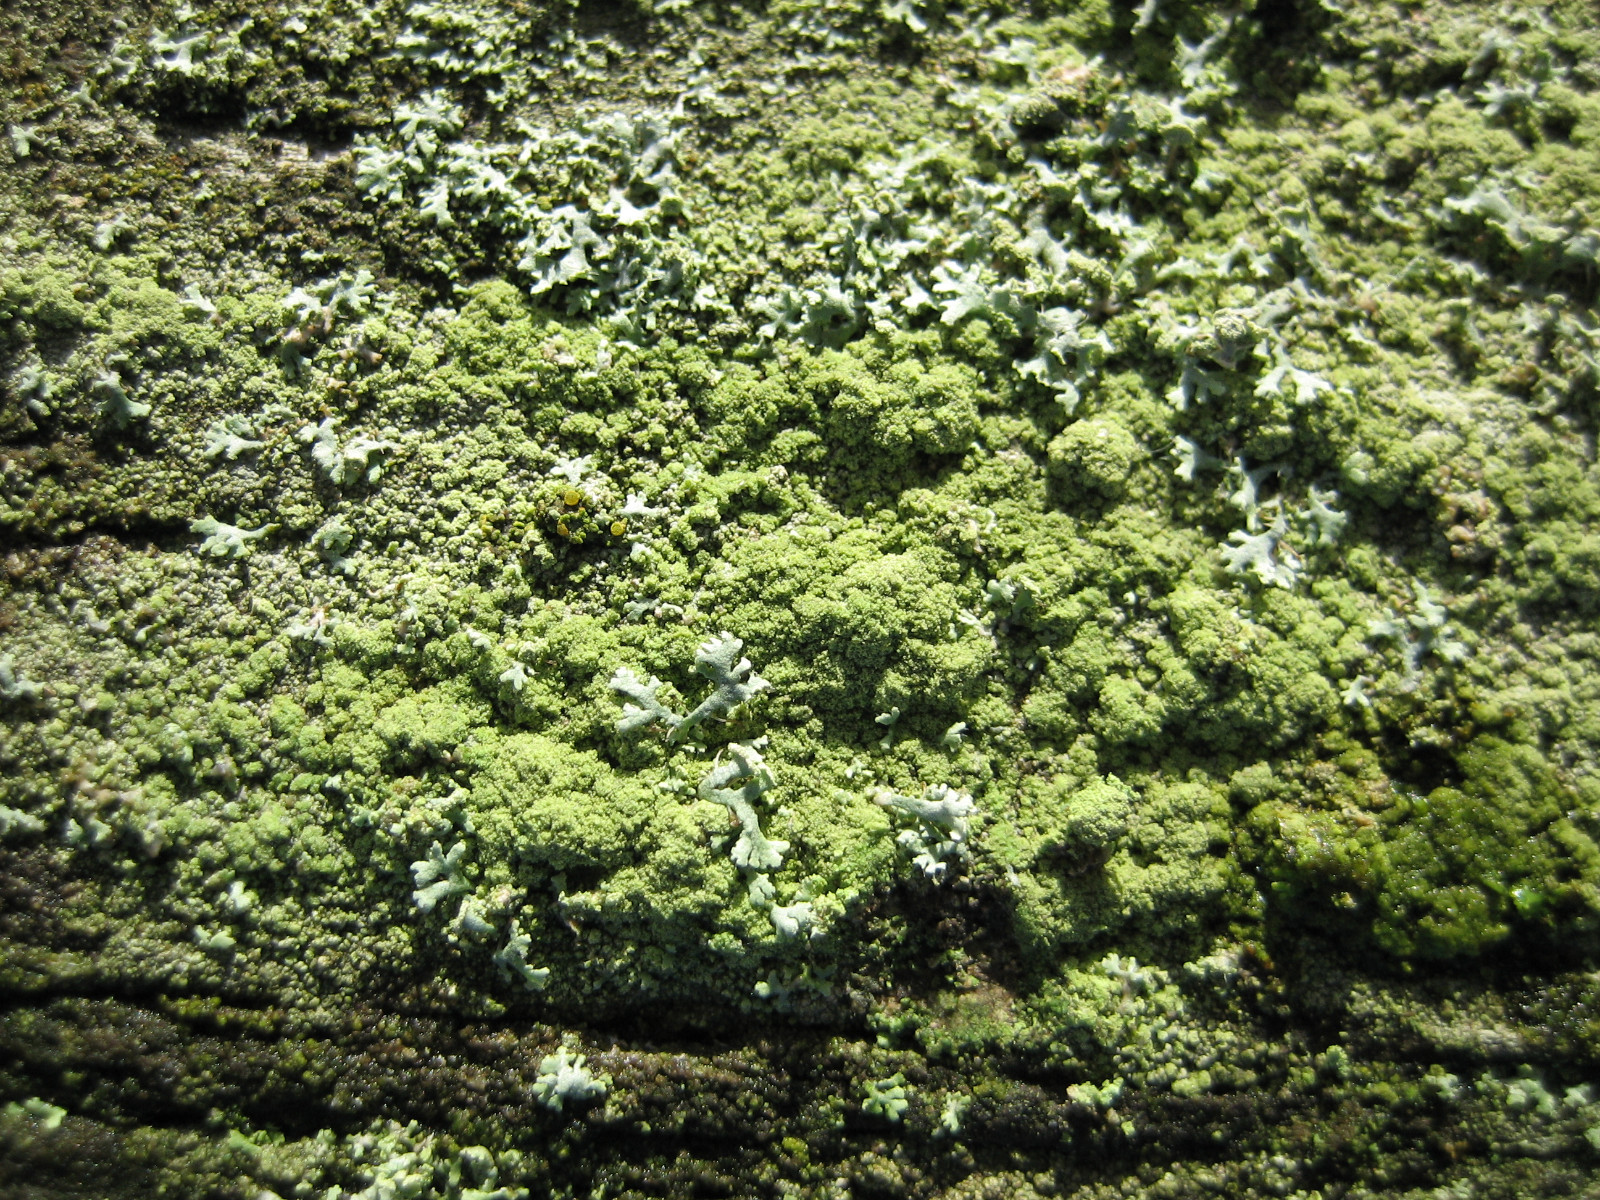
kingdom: Fungi
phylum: Ascomycota
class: Lecanoromycetes
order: Lecanorales
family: Lecanoraceae
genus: Lecanora
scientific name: Lecanora expallens
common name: bleggul kantskivelav
